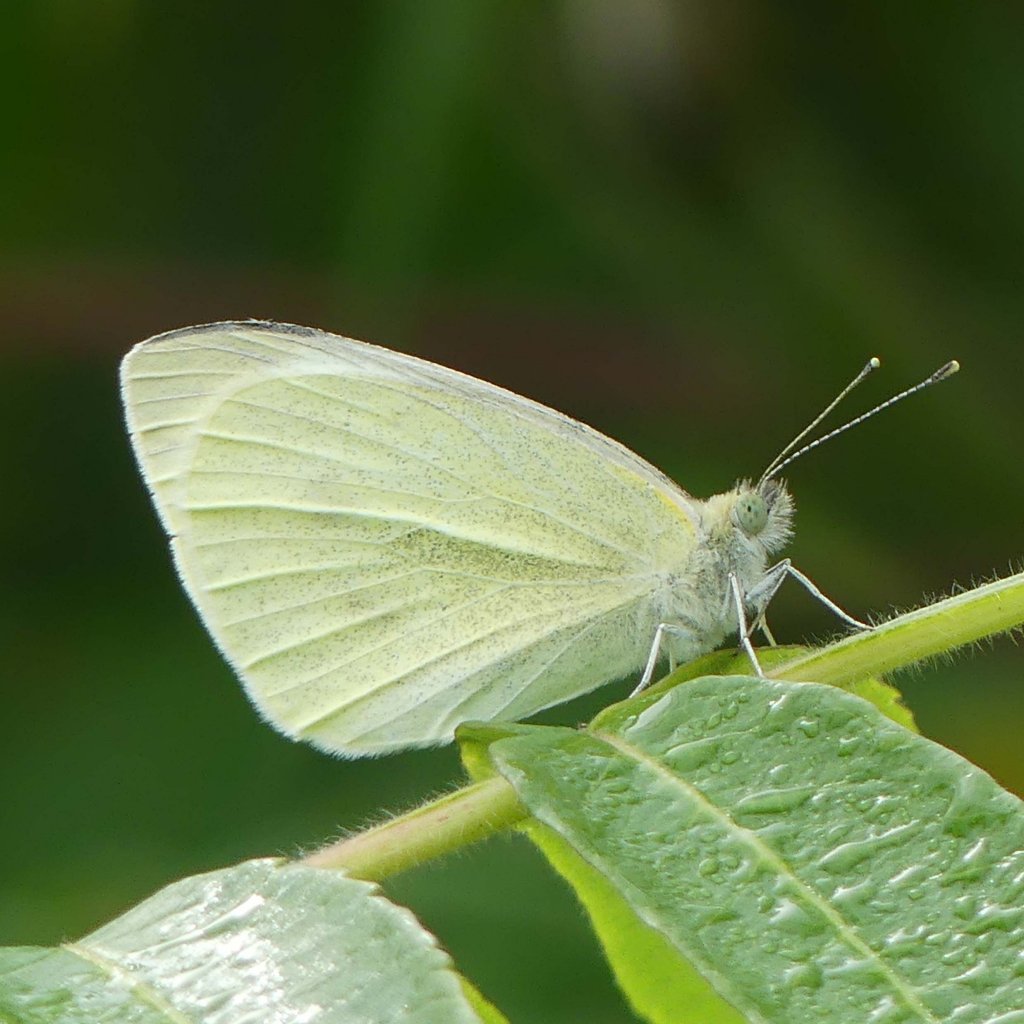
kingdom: Animalia
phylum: Arthropoda
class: Insecta
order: Lepidoptera
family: Pieridae
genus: Pieris
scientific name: Pieris rapae
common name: Cabbage White
